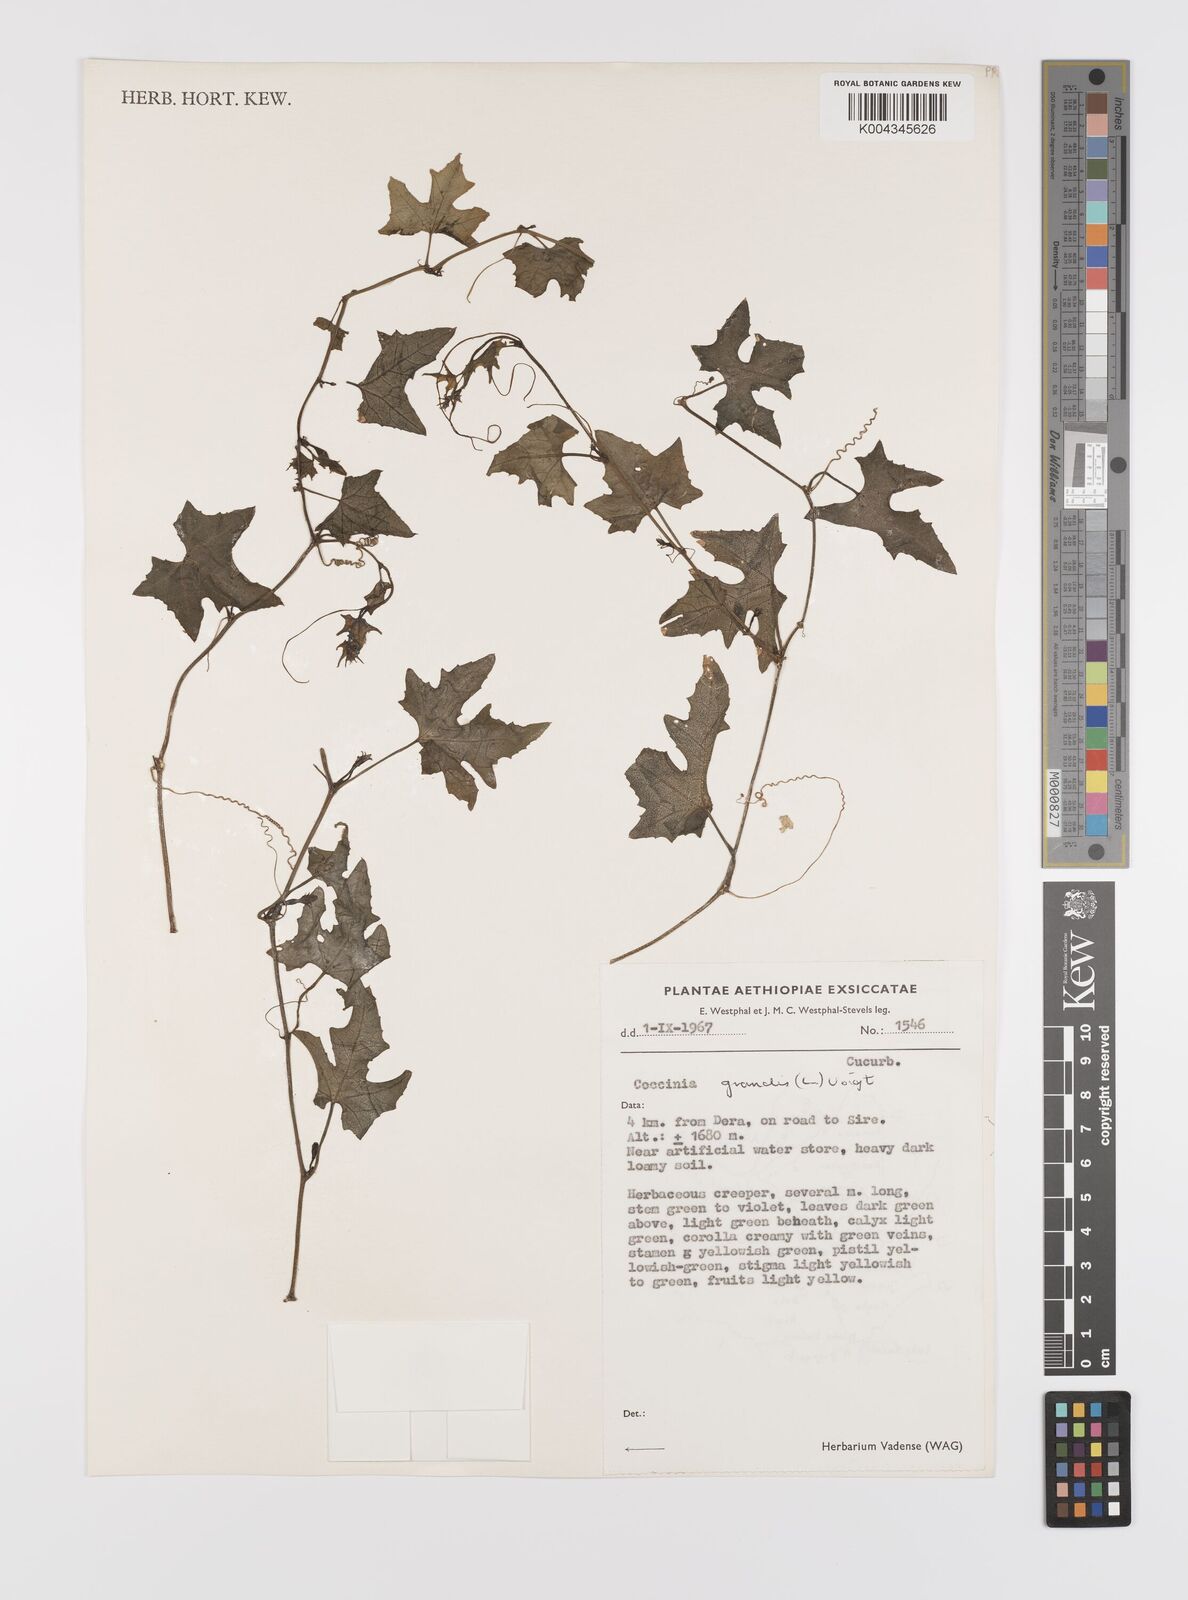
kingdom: Plantae
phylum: Tracheophyta
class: Magnoliopsida
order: Cucurbitales
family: Cucurbitaceae
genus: Coccinia
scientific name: Coccinia grandis
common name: Ivy gourd
